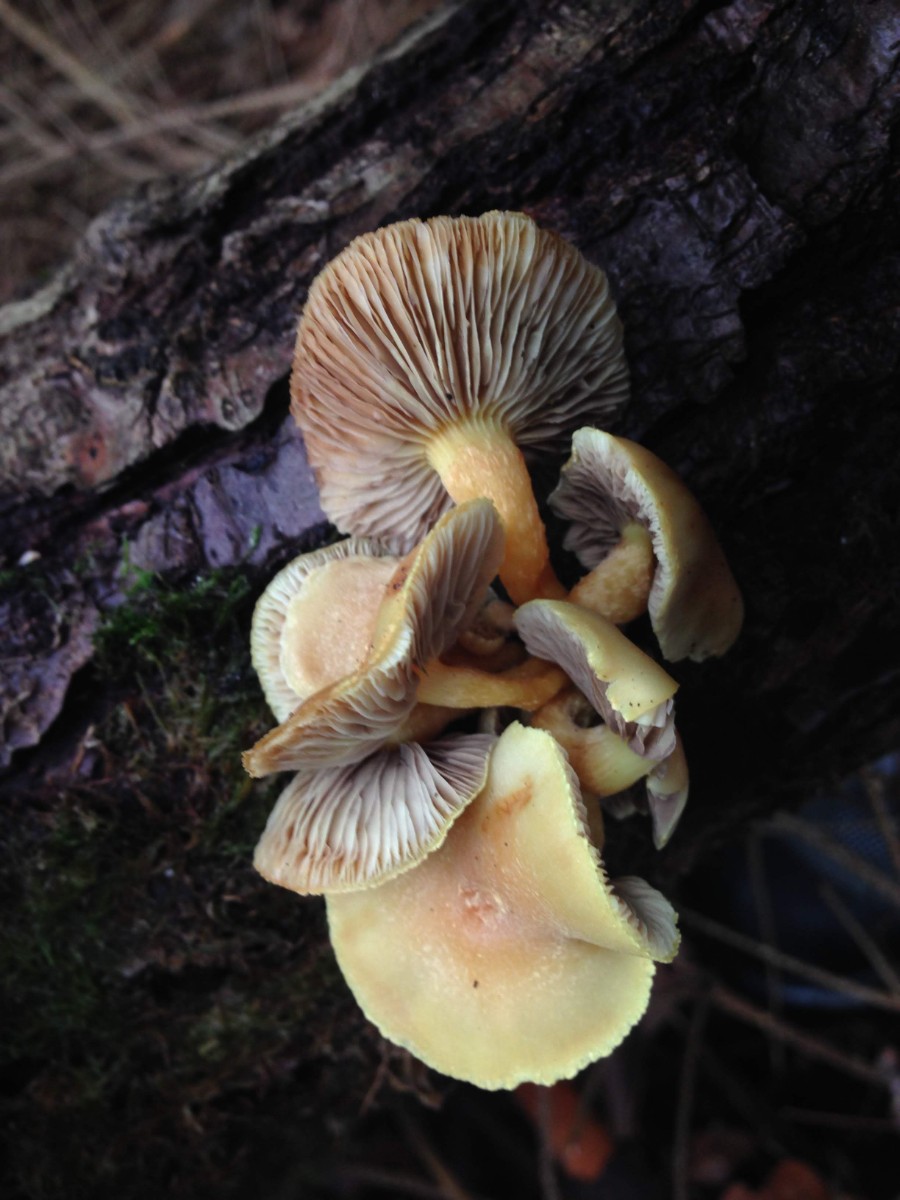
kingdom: Fungi
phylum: Basidiomycota
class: Agaricomycetes
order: Agaricales
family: Strophariaceae
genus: Hypholoma
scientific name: Hypholoma capnoides
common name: gran-svovlhat
